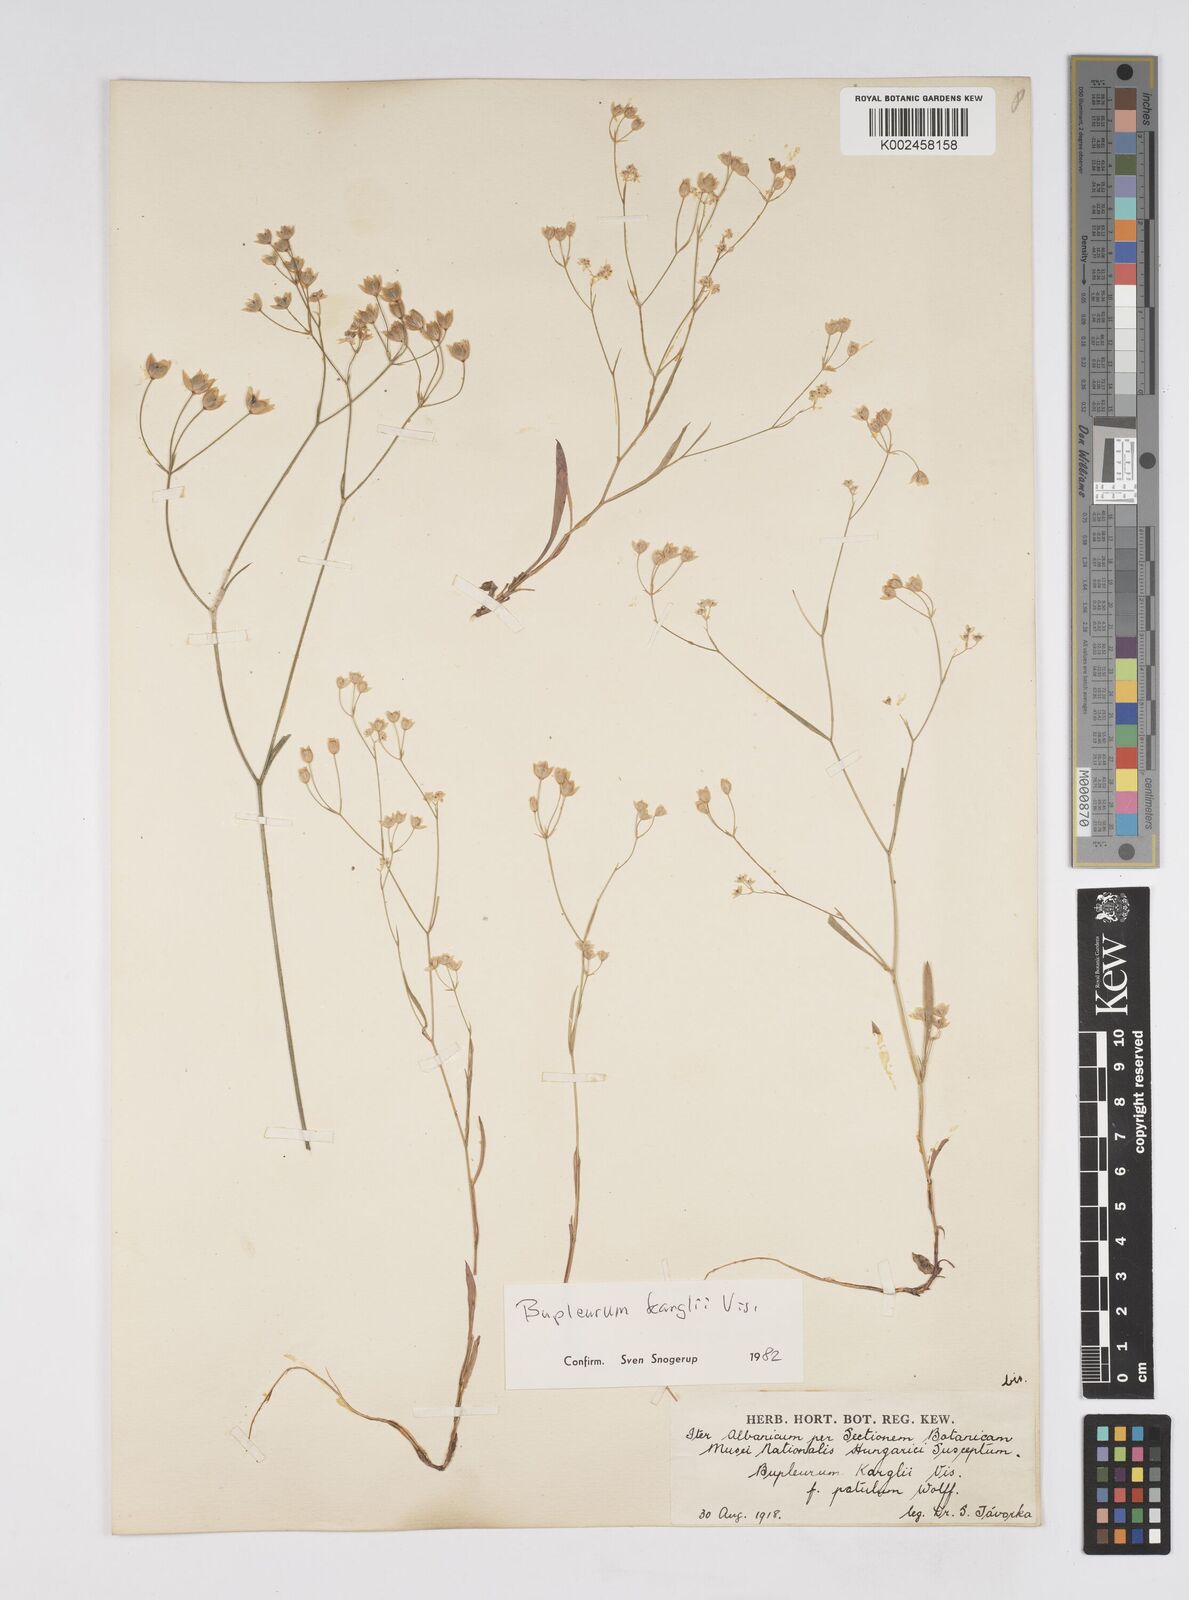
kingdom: Plantae
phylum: Tracheophyta
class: Magnoliopsida
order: Apiales
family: Apiaceae
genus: Bupleurum
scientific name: Bupleurum karglii
